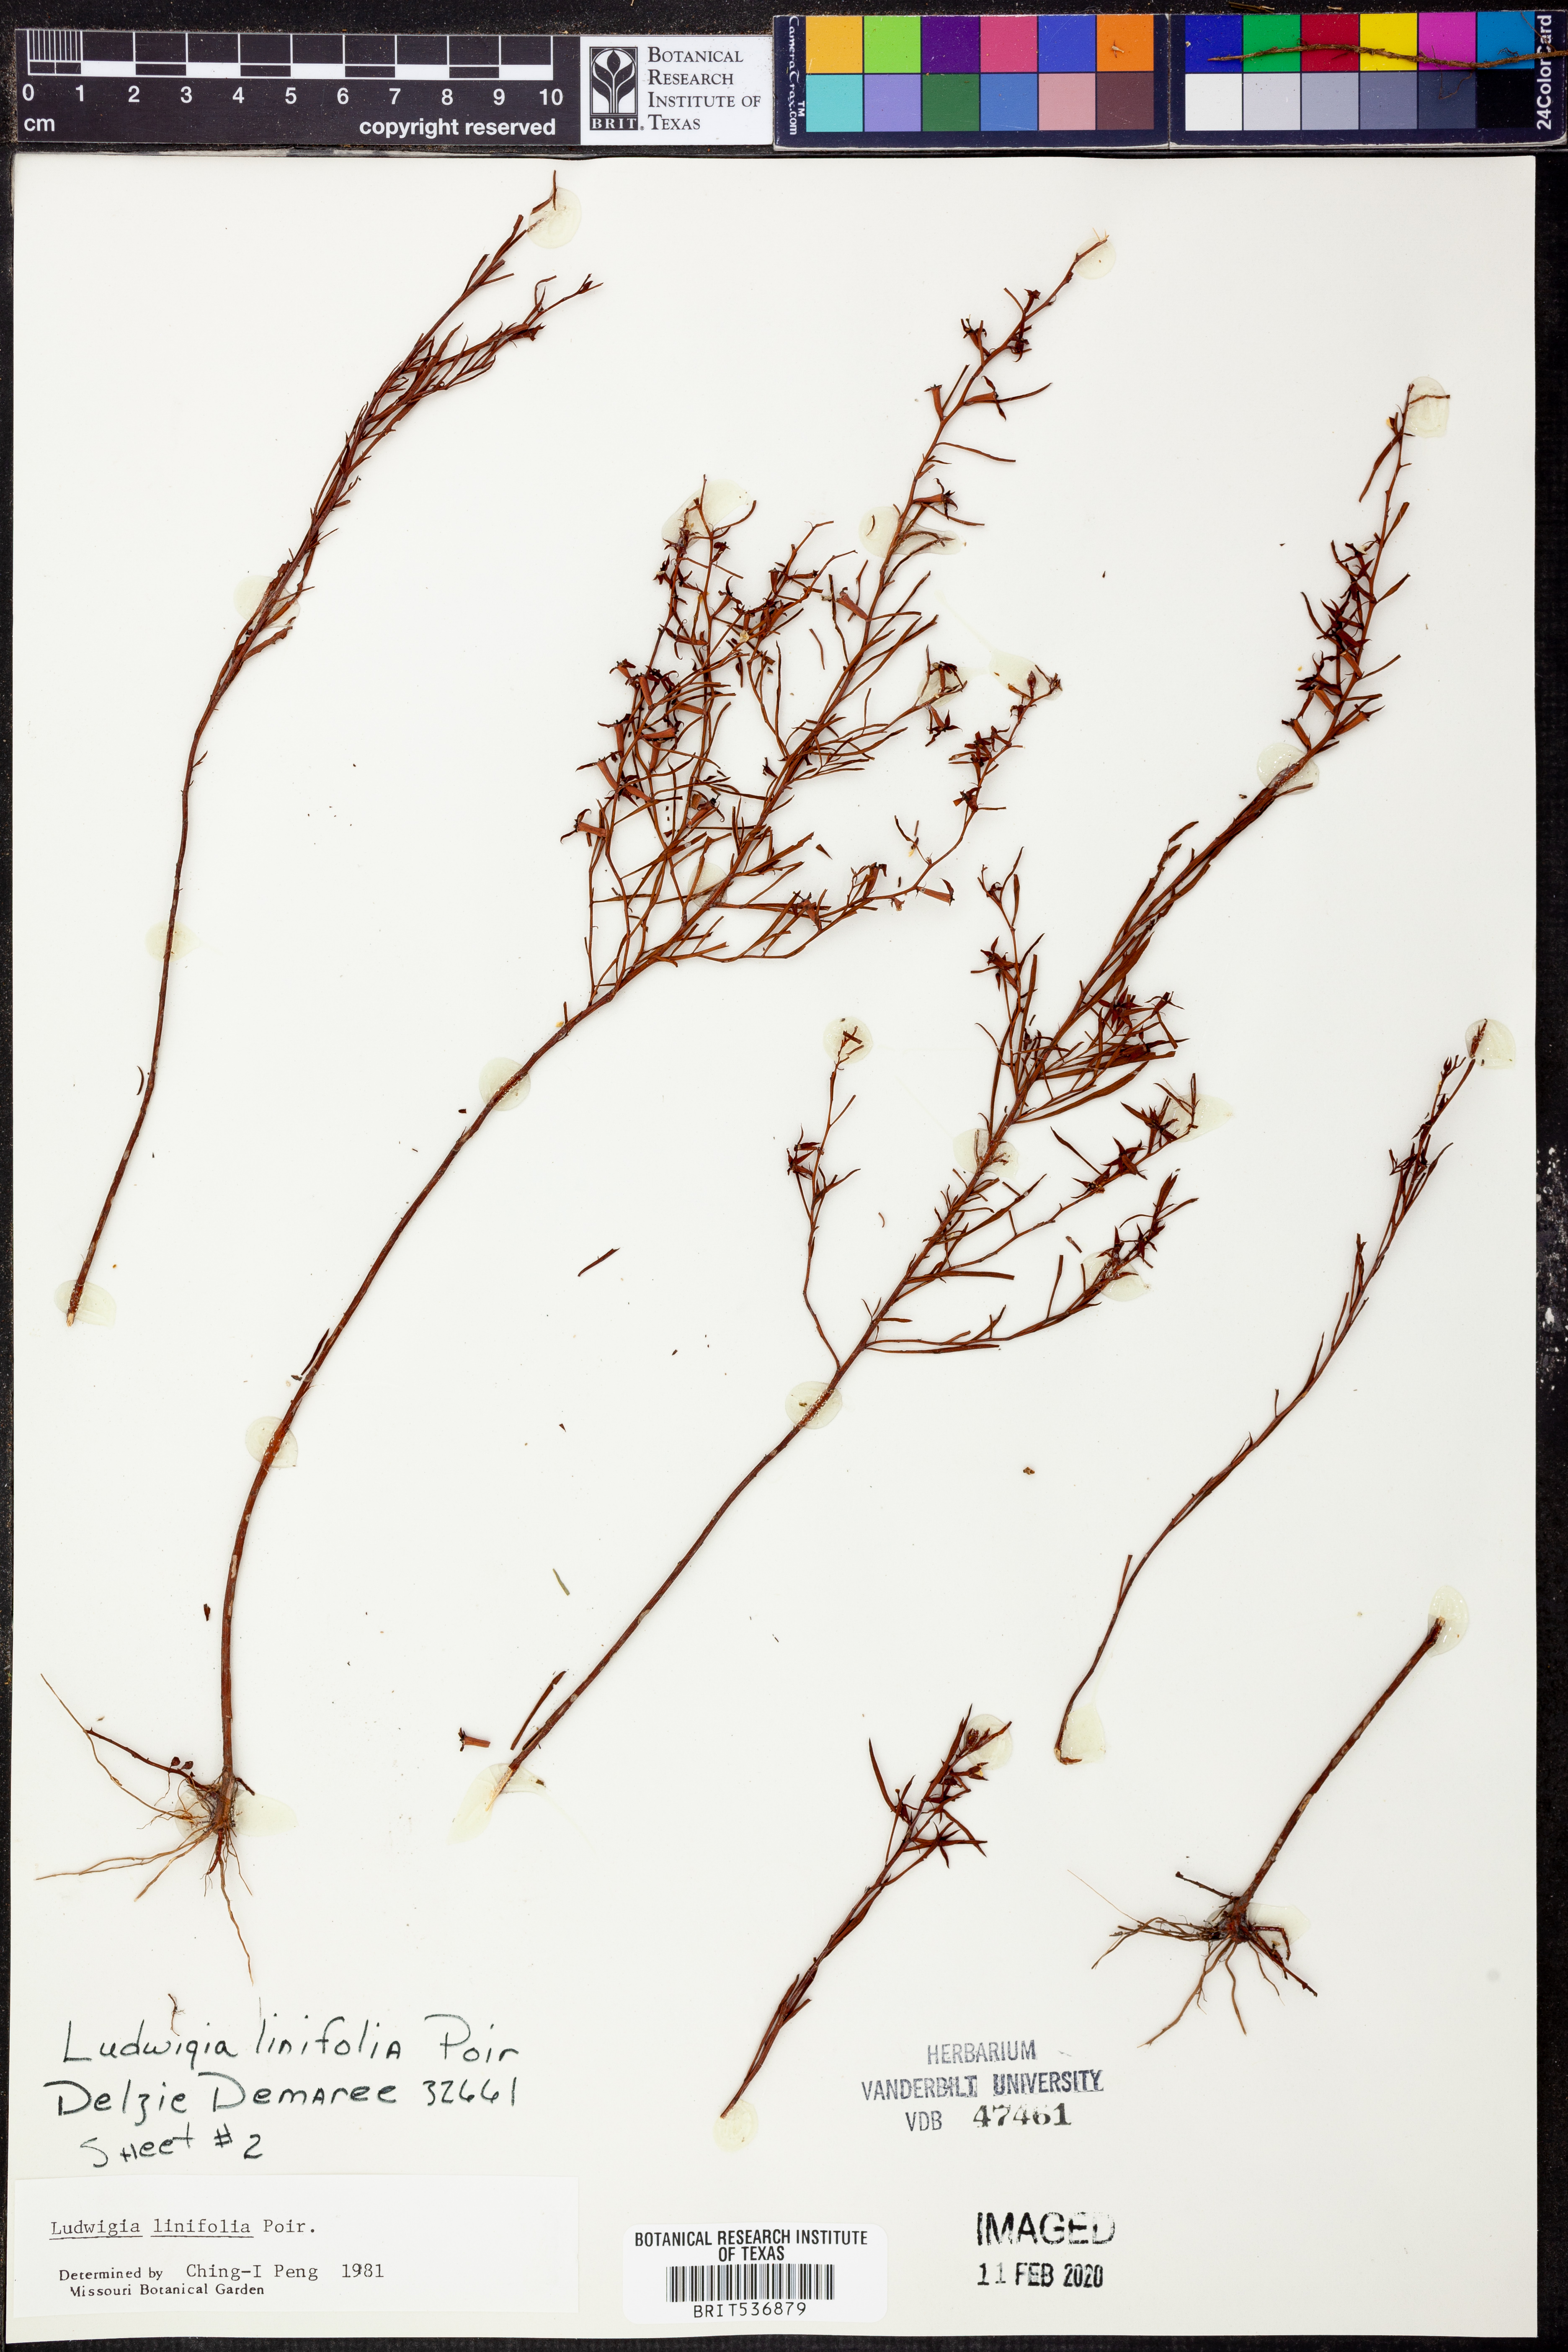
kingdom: Plantae
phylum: Tracheophyta
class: Magnoliopsida
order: Myrtales
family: Onagraceae
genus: Ludwigia
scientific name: Ludwigia linifolia
